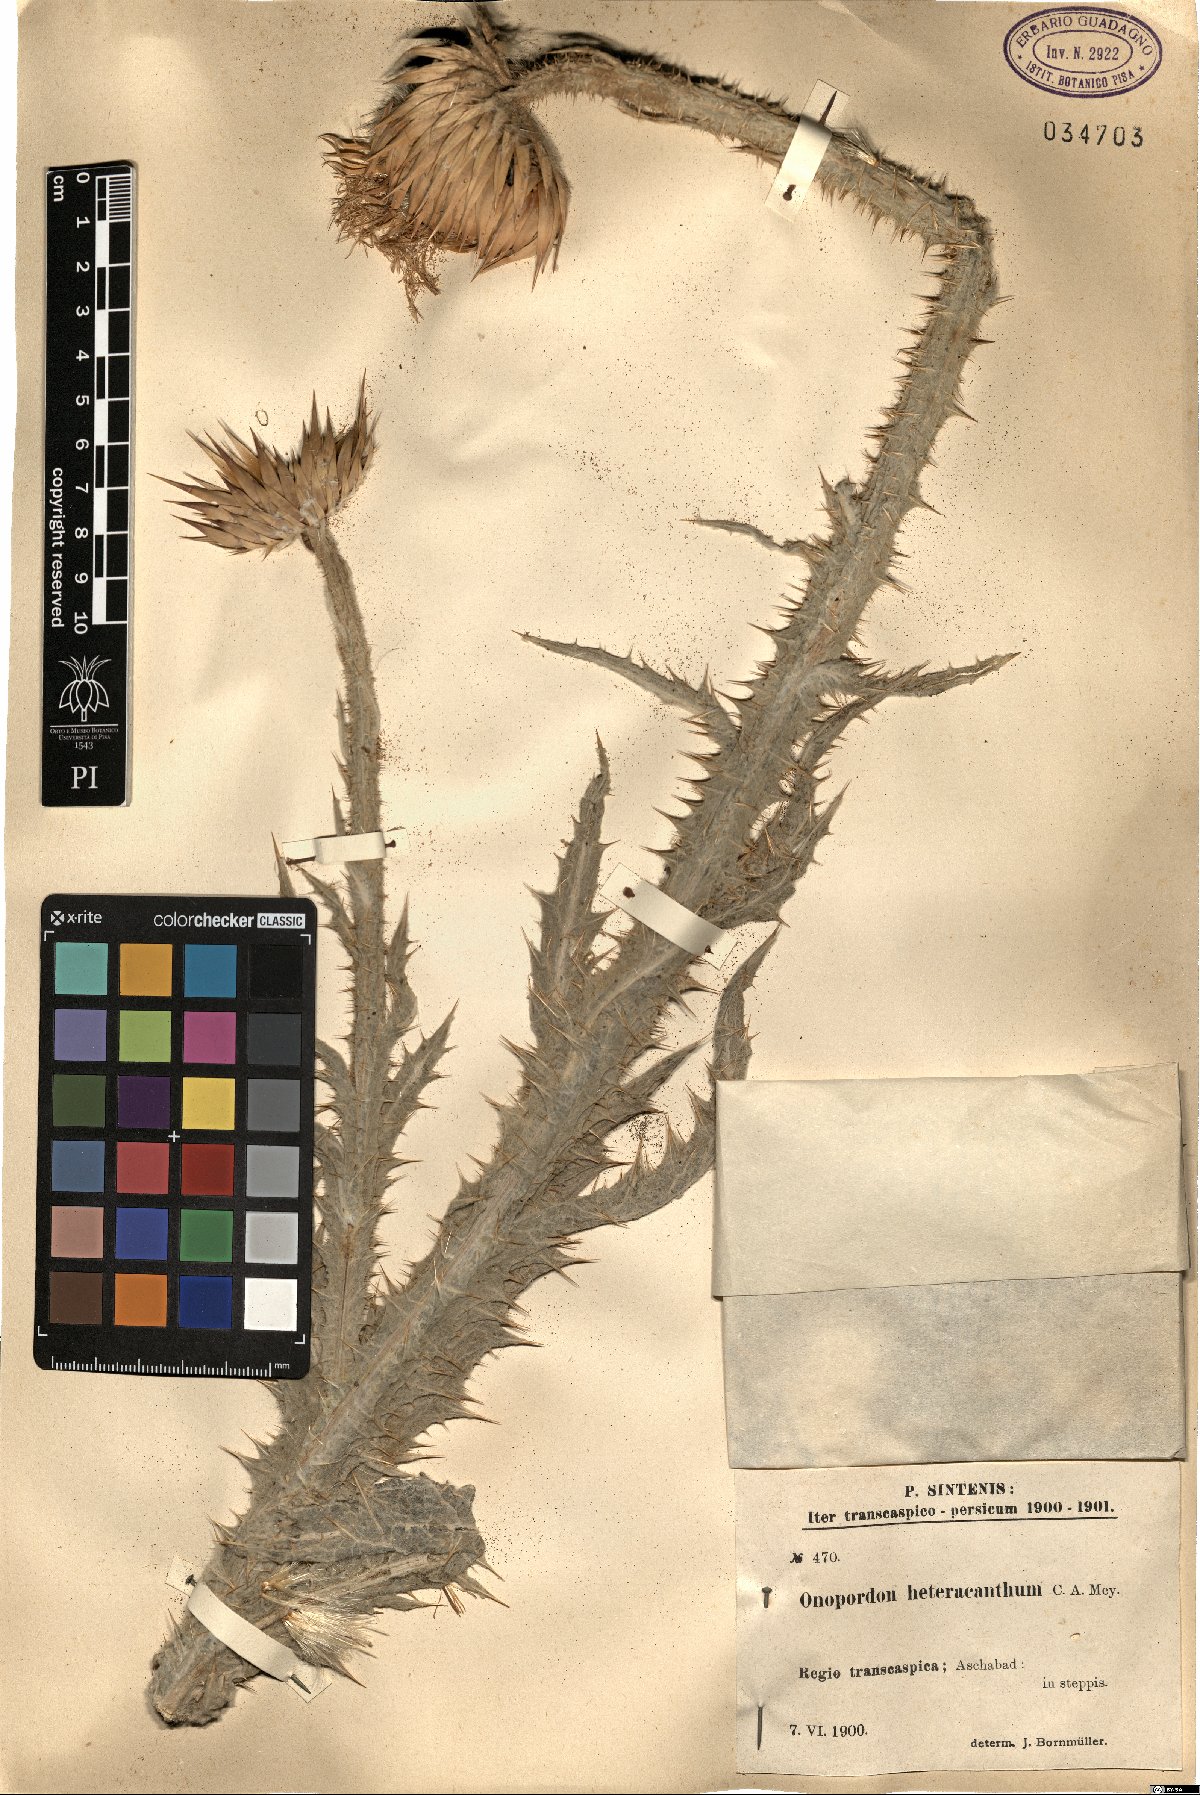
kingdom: Plantae
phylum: Tracheophyta
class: Magnoliopsida
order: Asterales
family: Asteraceae
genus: Onopordum
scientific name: Onopordum heteracanthum
